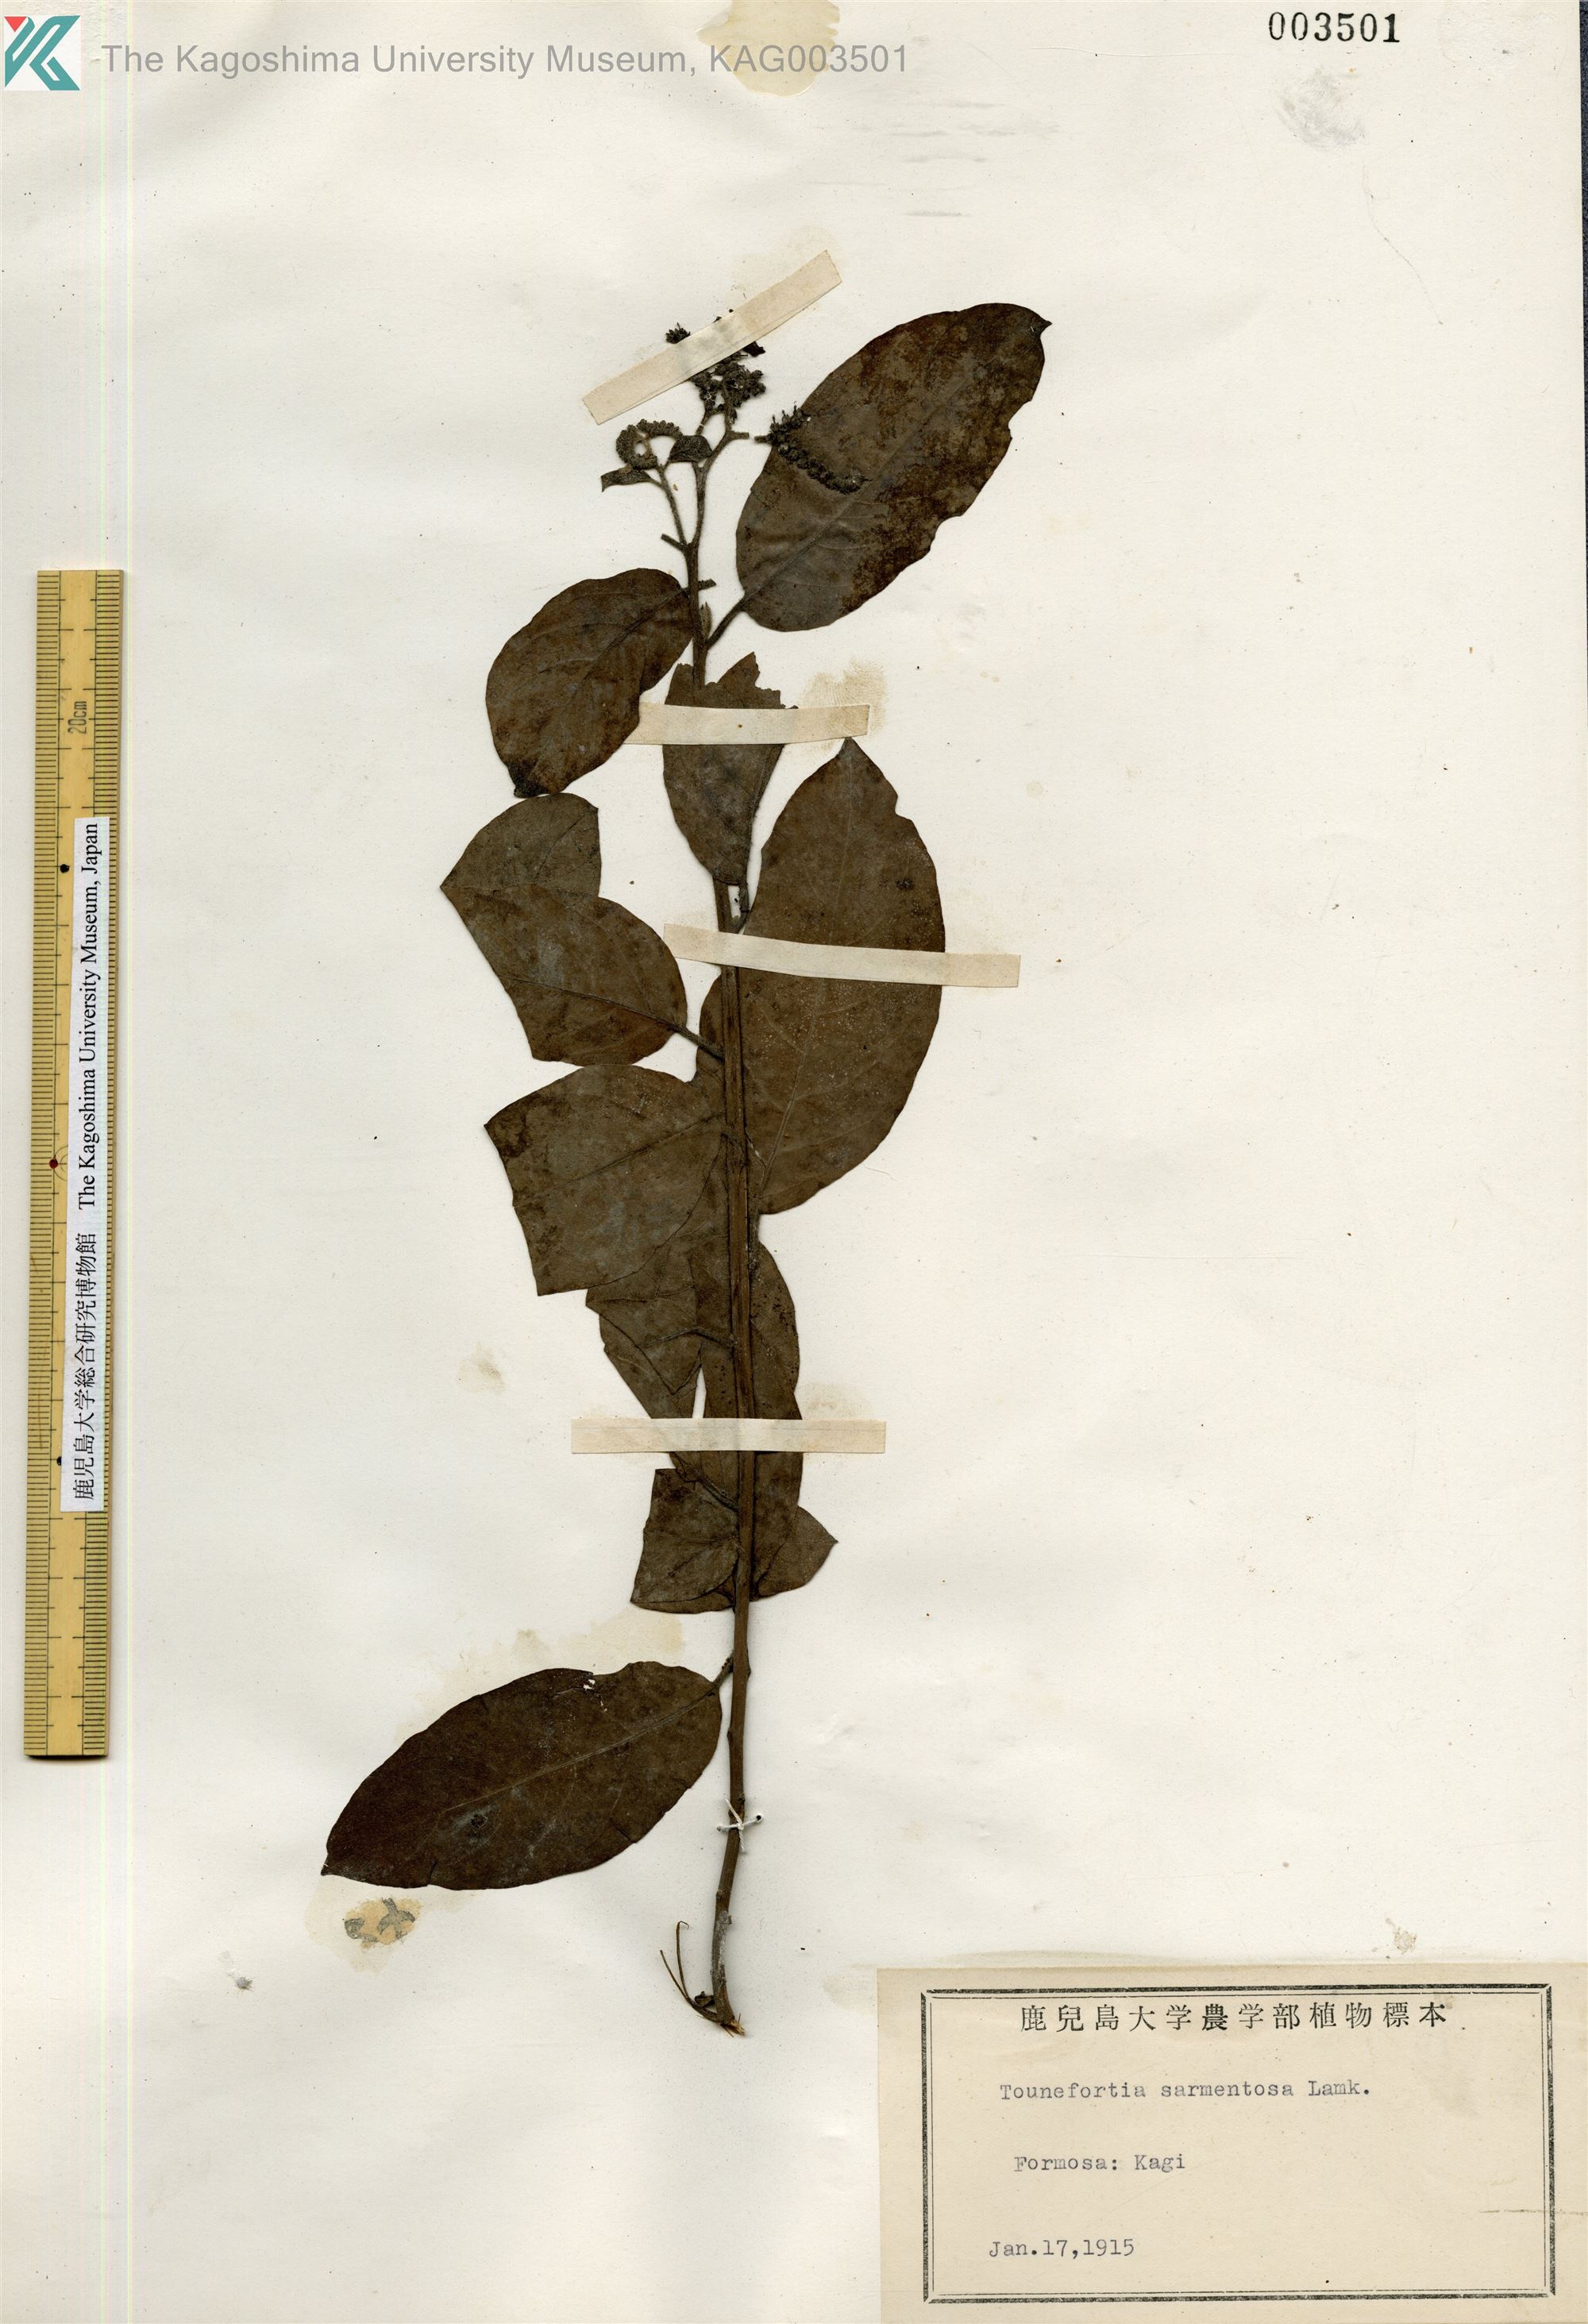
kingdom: Plantae
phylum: Tracheophyta
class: Magnoliopsida
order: Boraginales
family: Heliotropiaceae
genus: Heliotropium
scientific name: Heliotropium sarmentosum
